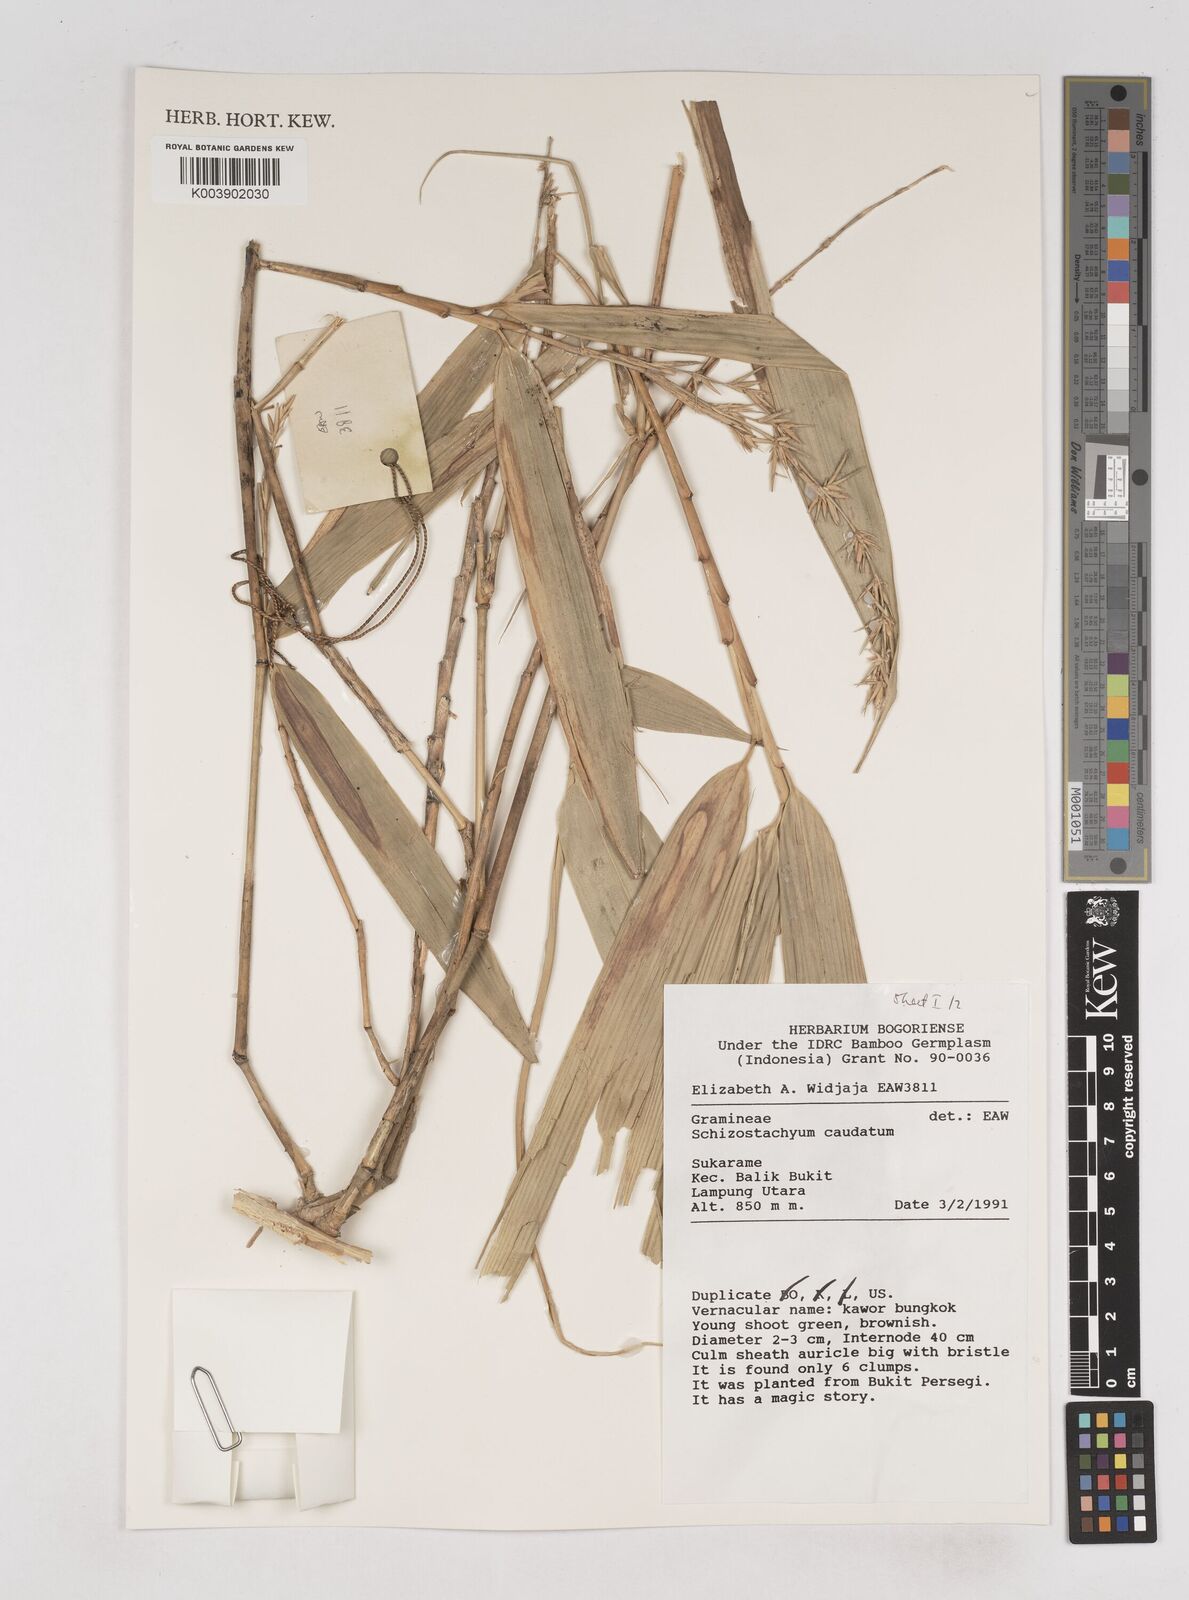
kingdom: Plantae
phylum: Tracheophyta
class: Liliopsida
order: Poales
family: Poaceae
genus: Schizostachyum
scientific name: Schizostachyum caudatum
